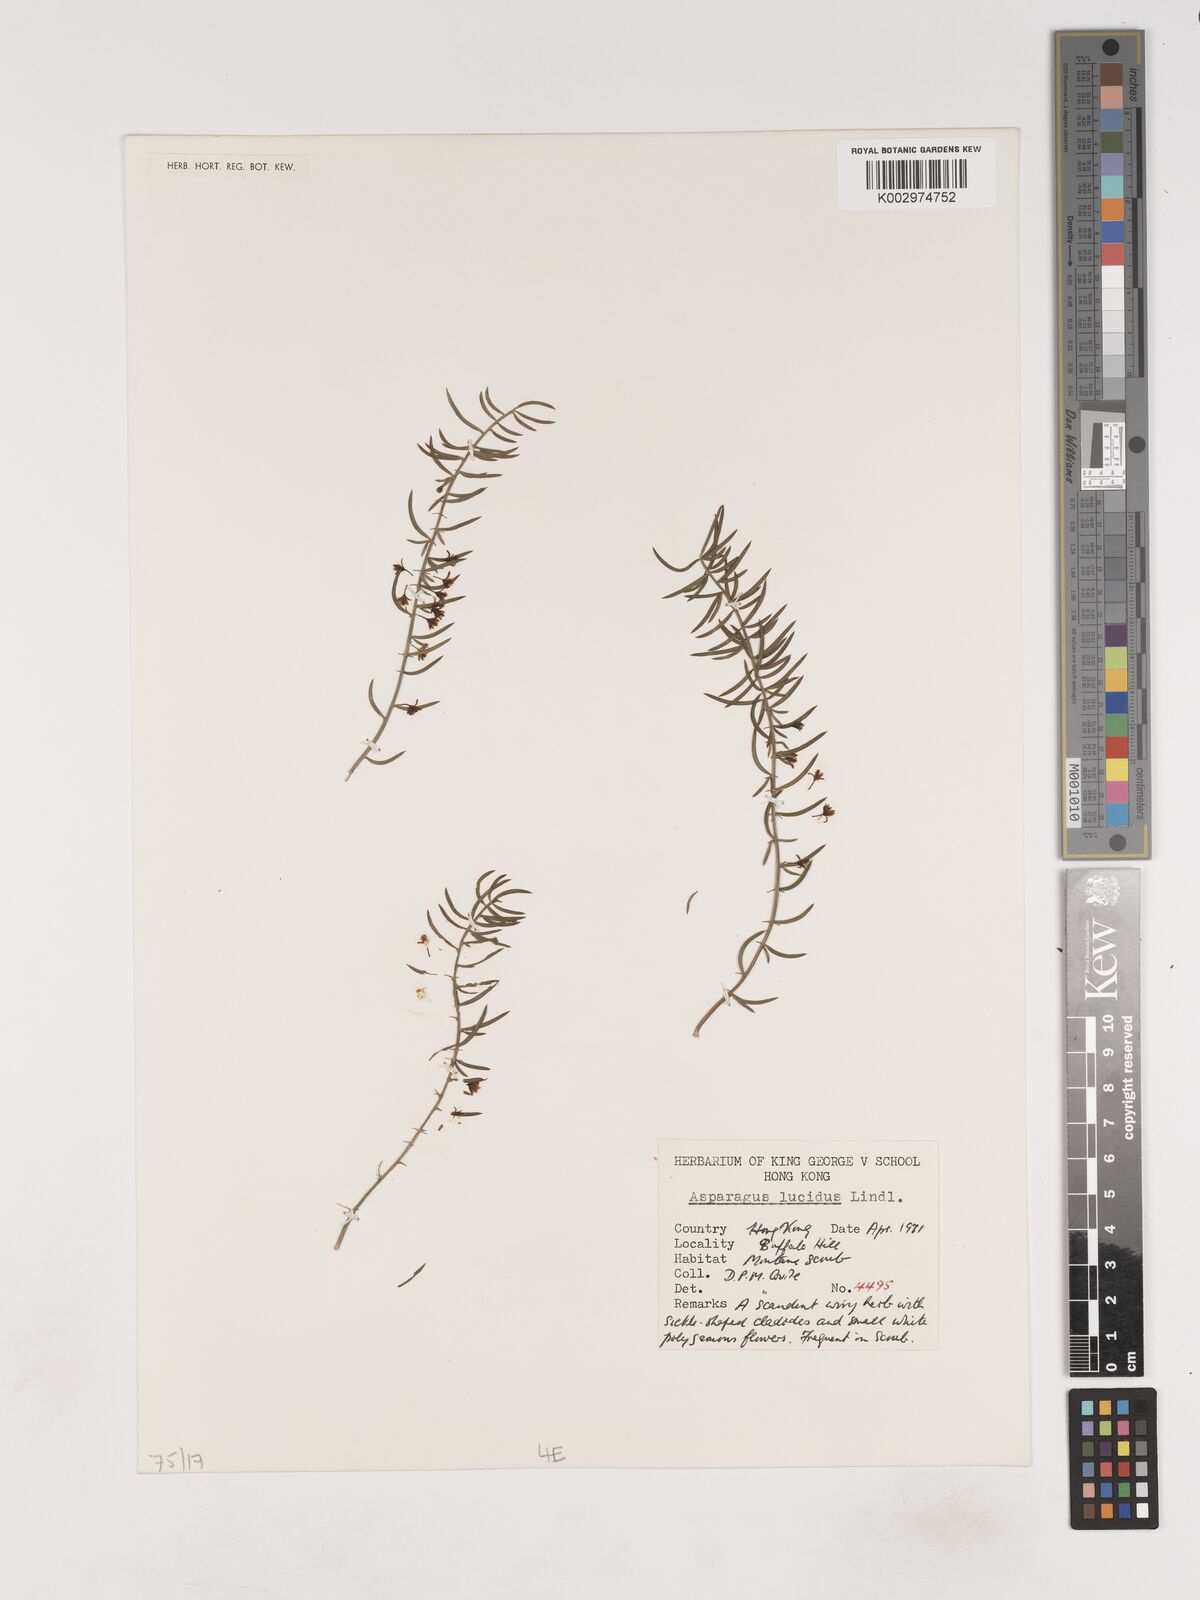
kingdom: Plantae
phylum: Tracheophyta
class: Liliopsida
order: Asparagales
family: Asparagaceae
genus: Asparagus
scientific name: Asparagus
